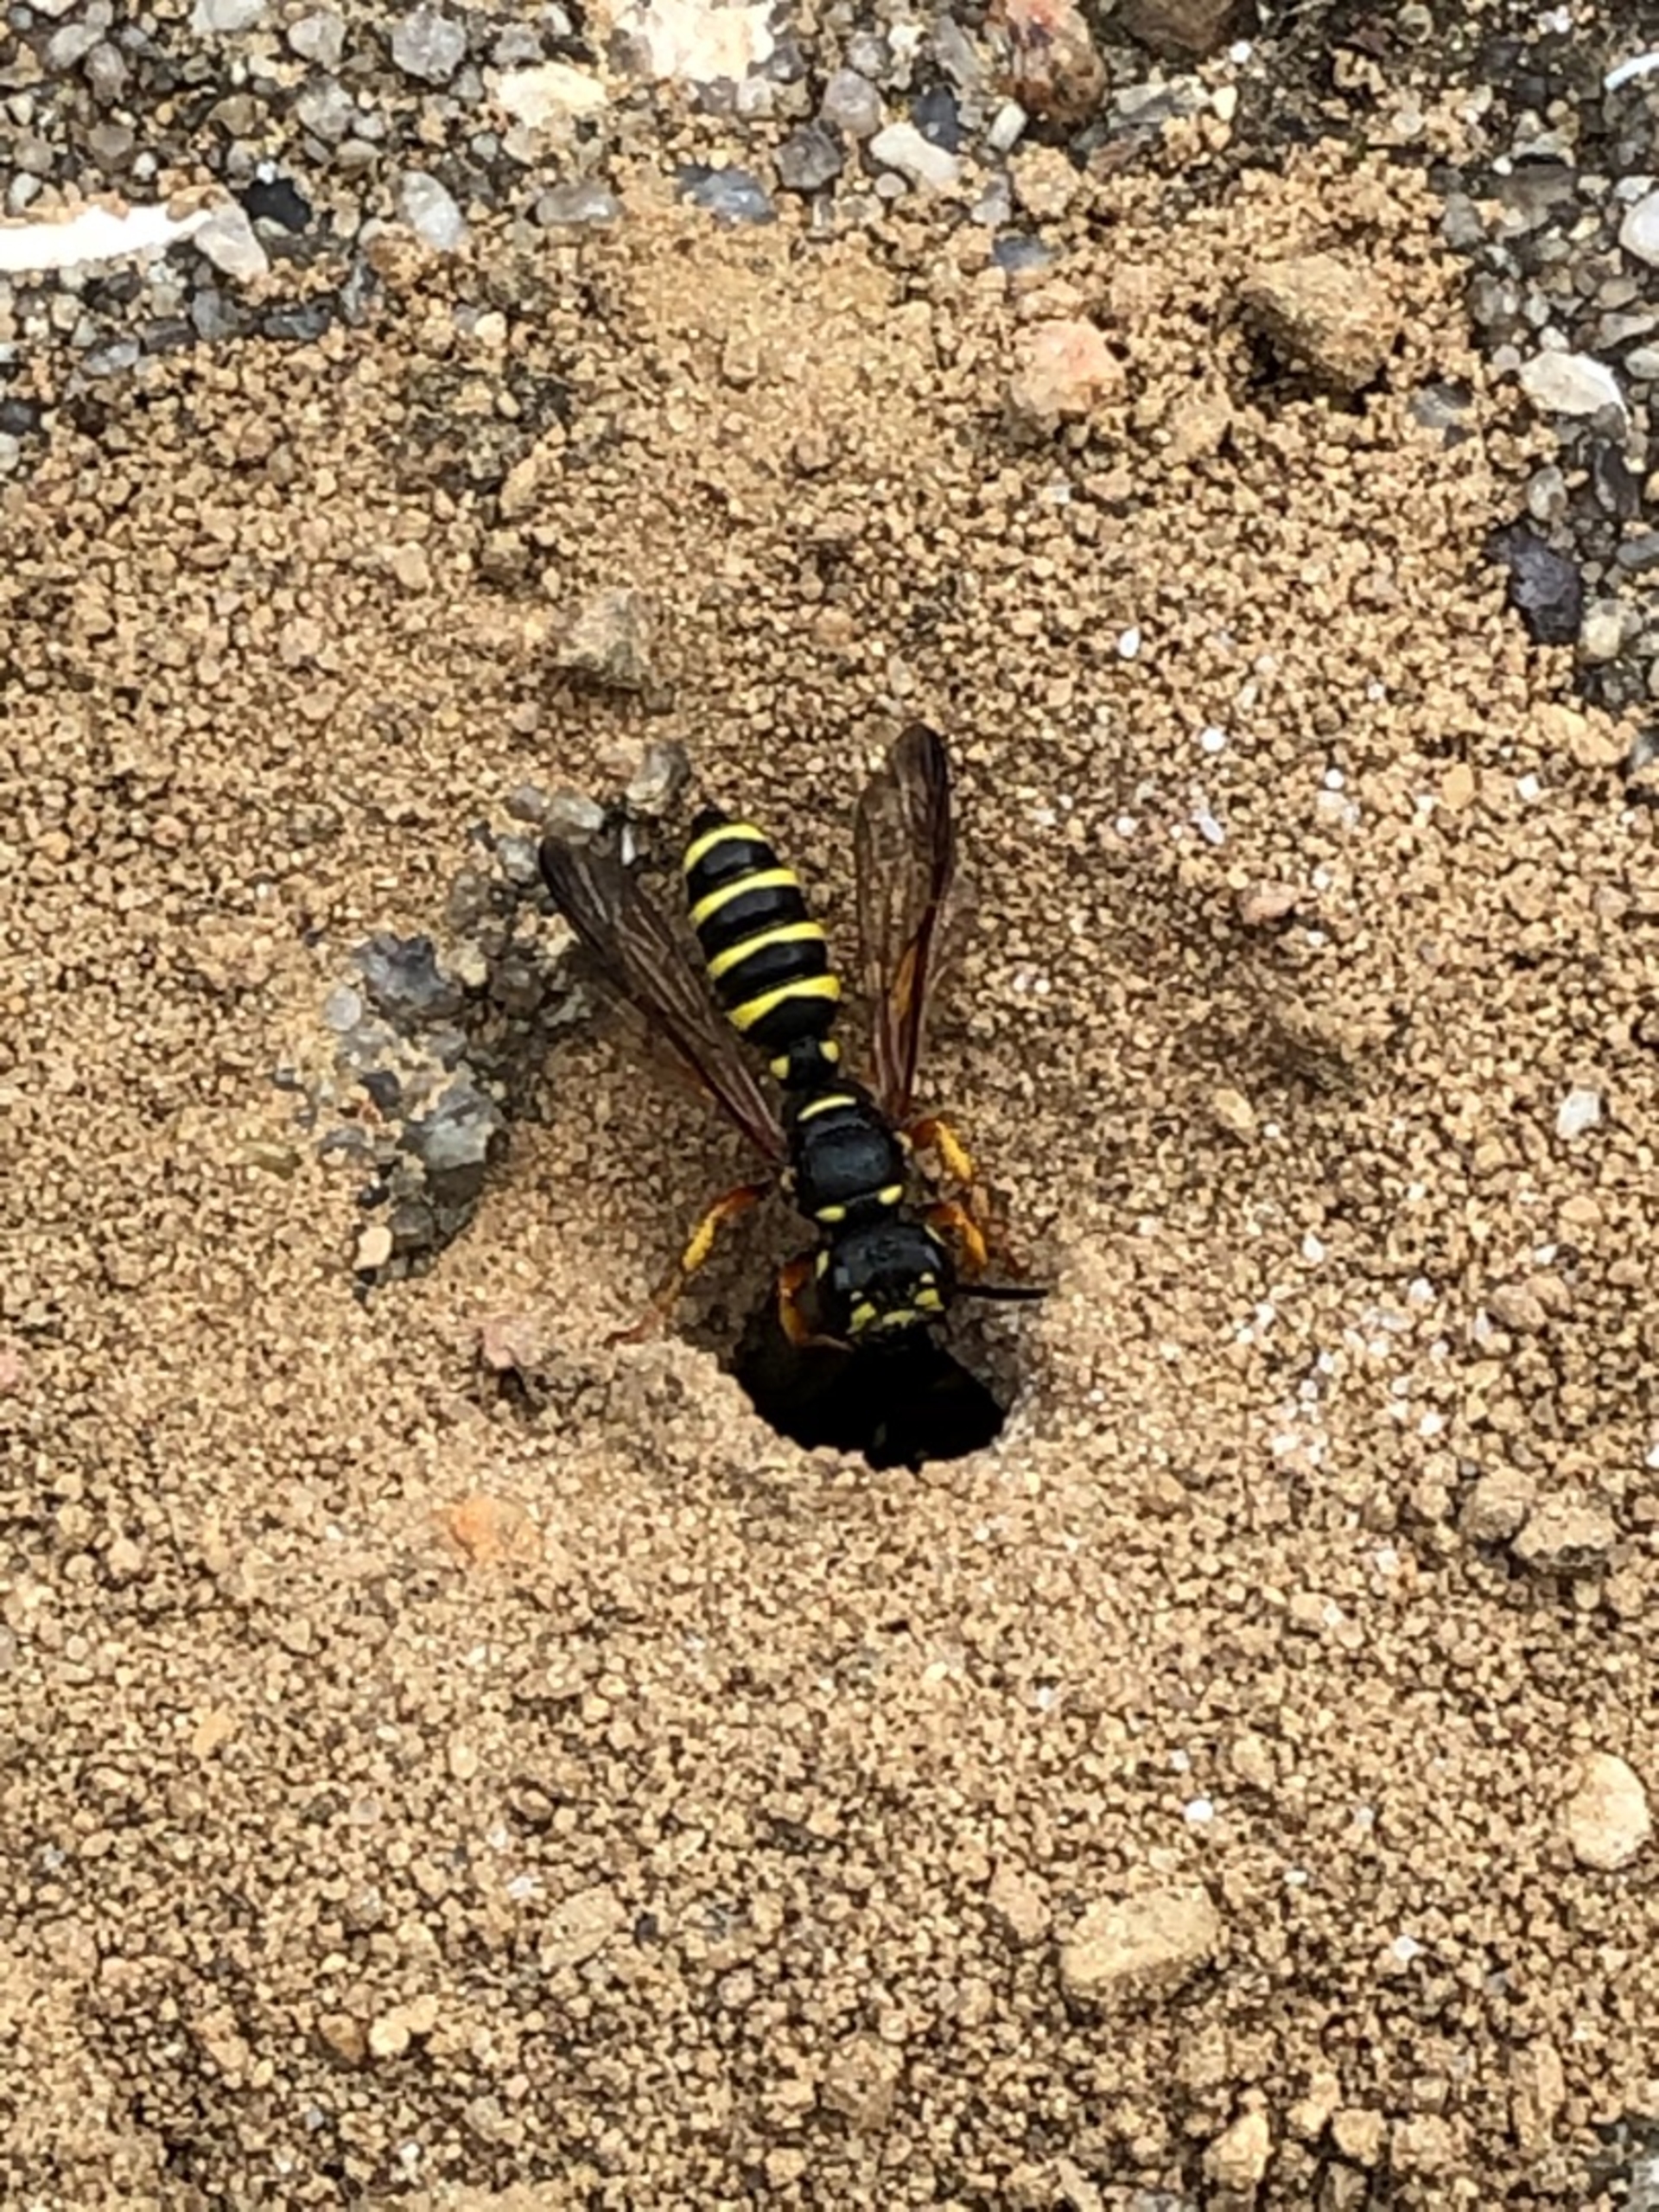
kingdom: Animalia
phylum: Arthropoda
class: Insecta
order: Hymenoptera
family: Crabronidae
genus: Cerceris
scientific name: Cerceris arenaria
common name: Sandknudehveps
